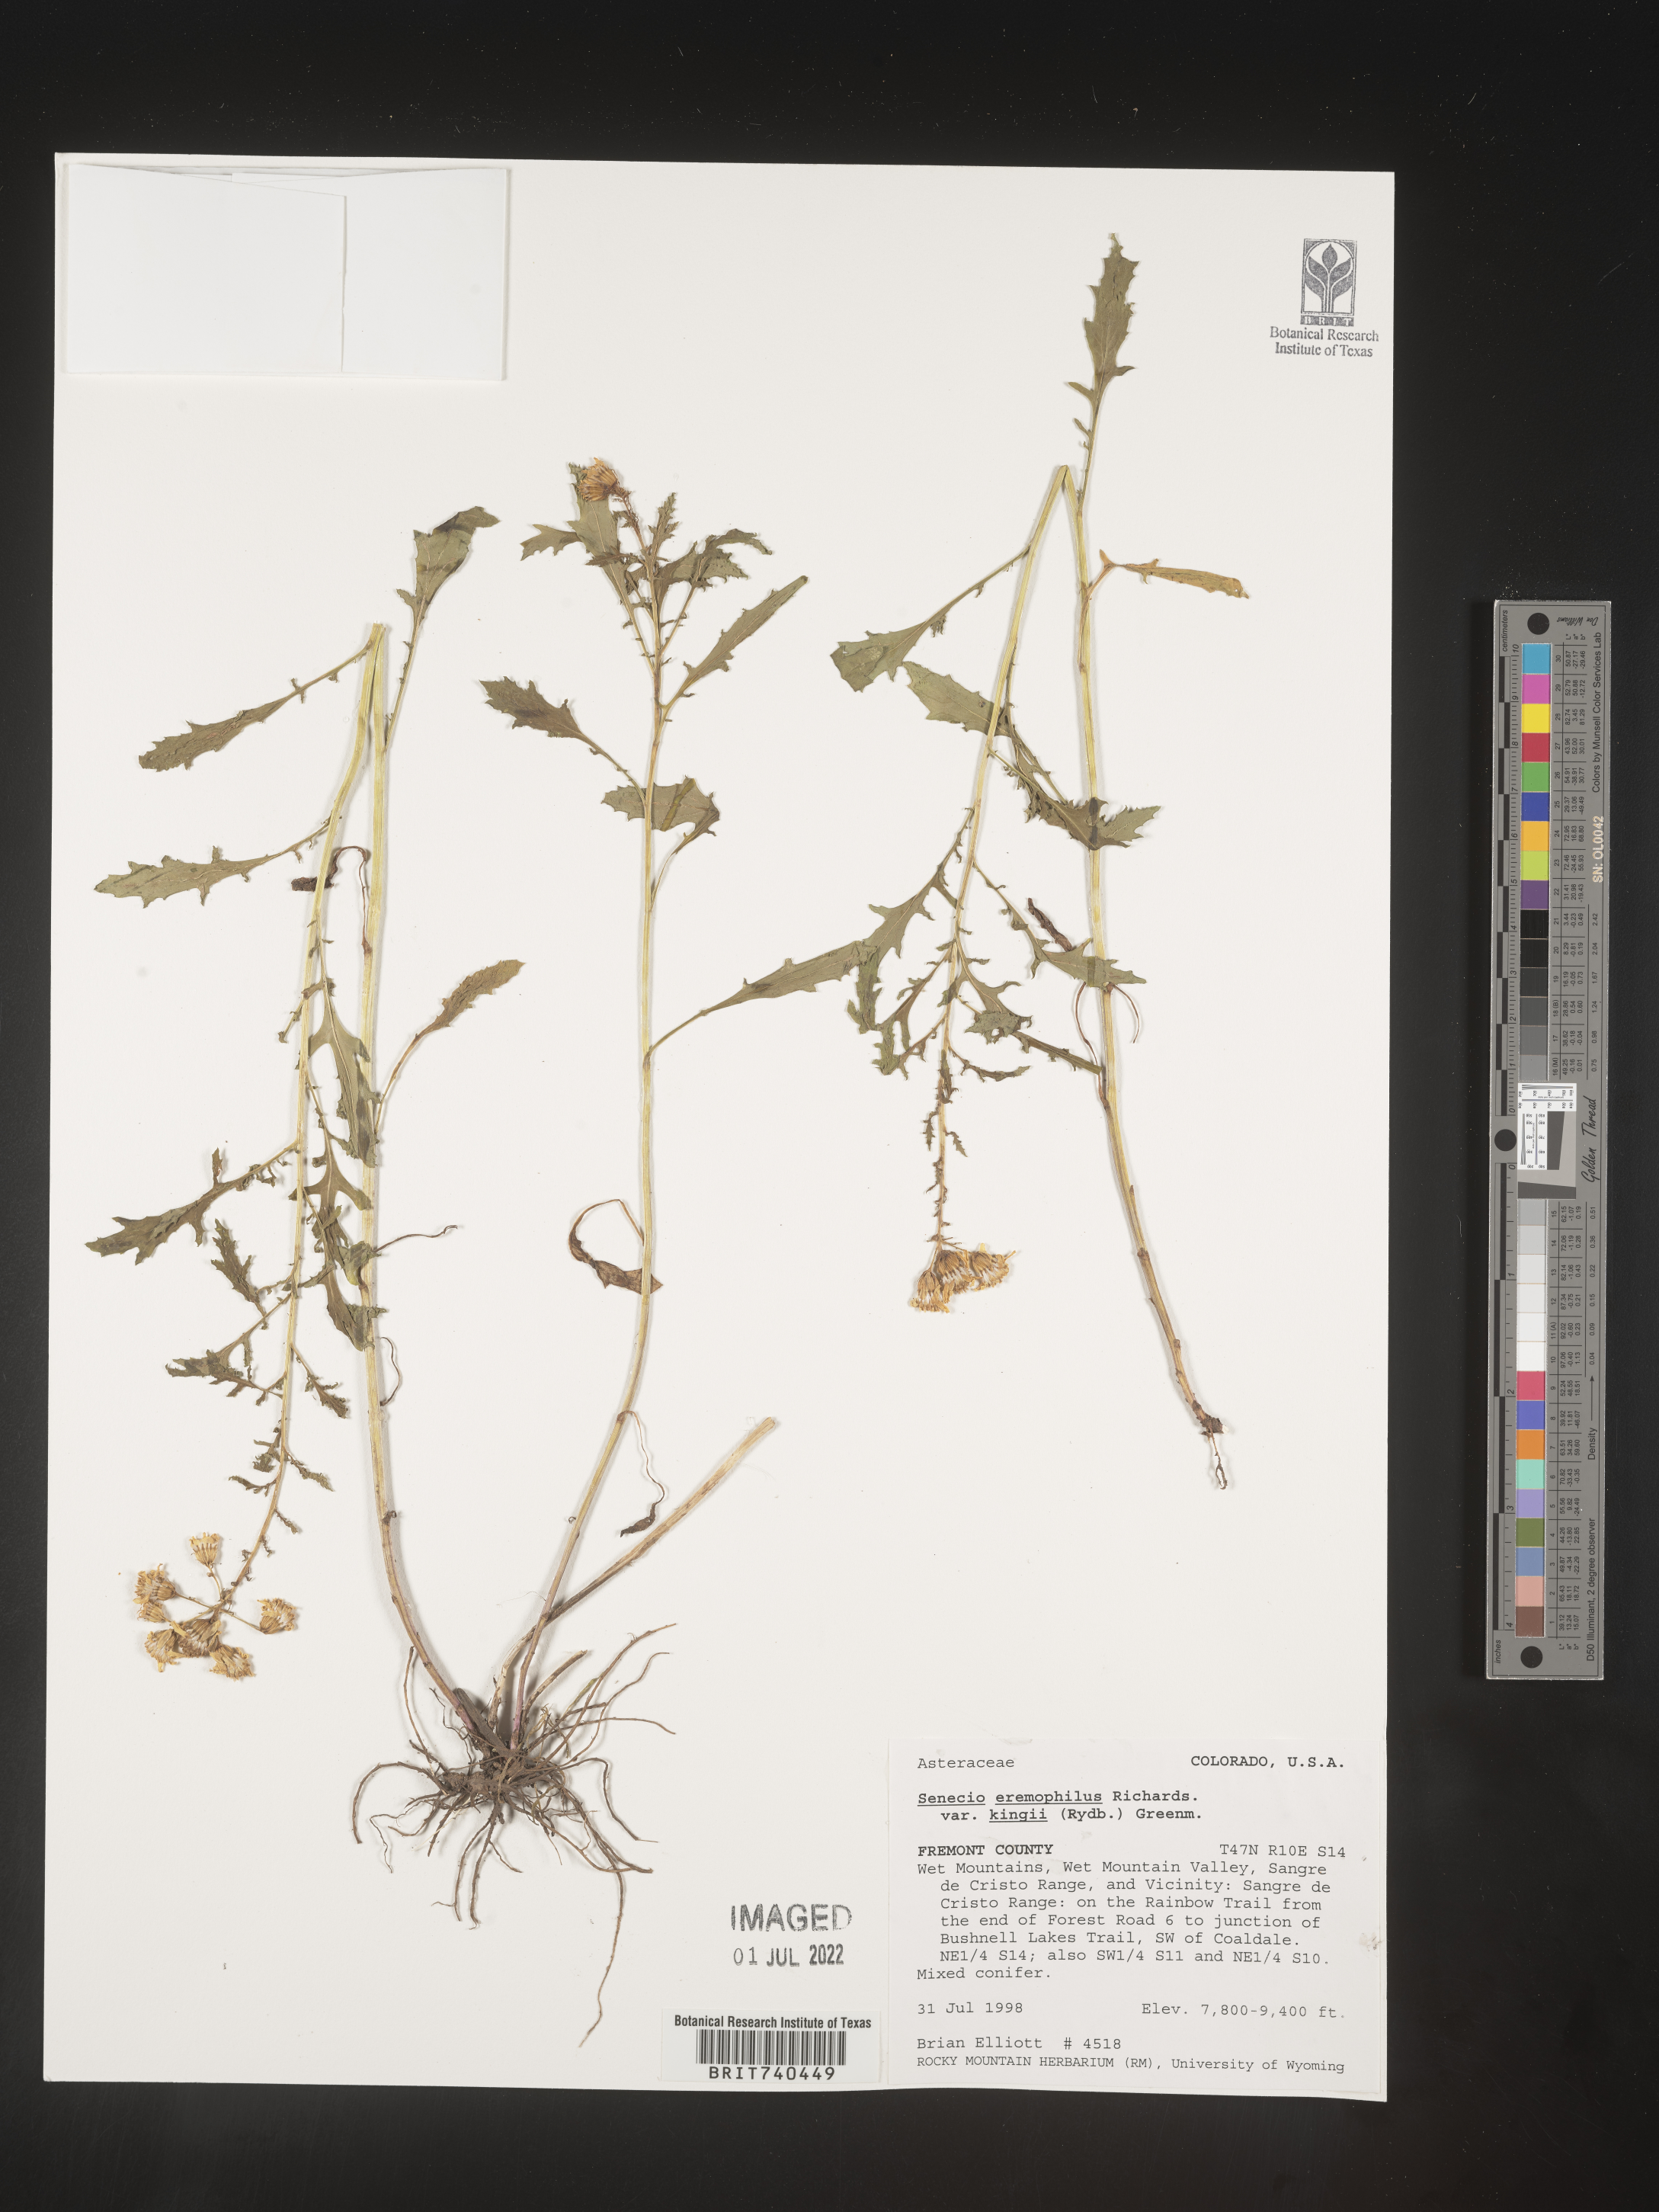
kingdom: Plantae
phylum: Tracheophyta
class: Magnoliopsida
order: Asterales
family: Asteraceae
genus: Senecio
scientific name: Senecio eremophilus
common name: Desert ragwort
